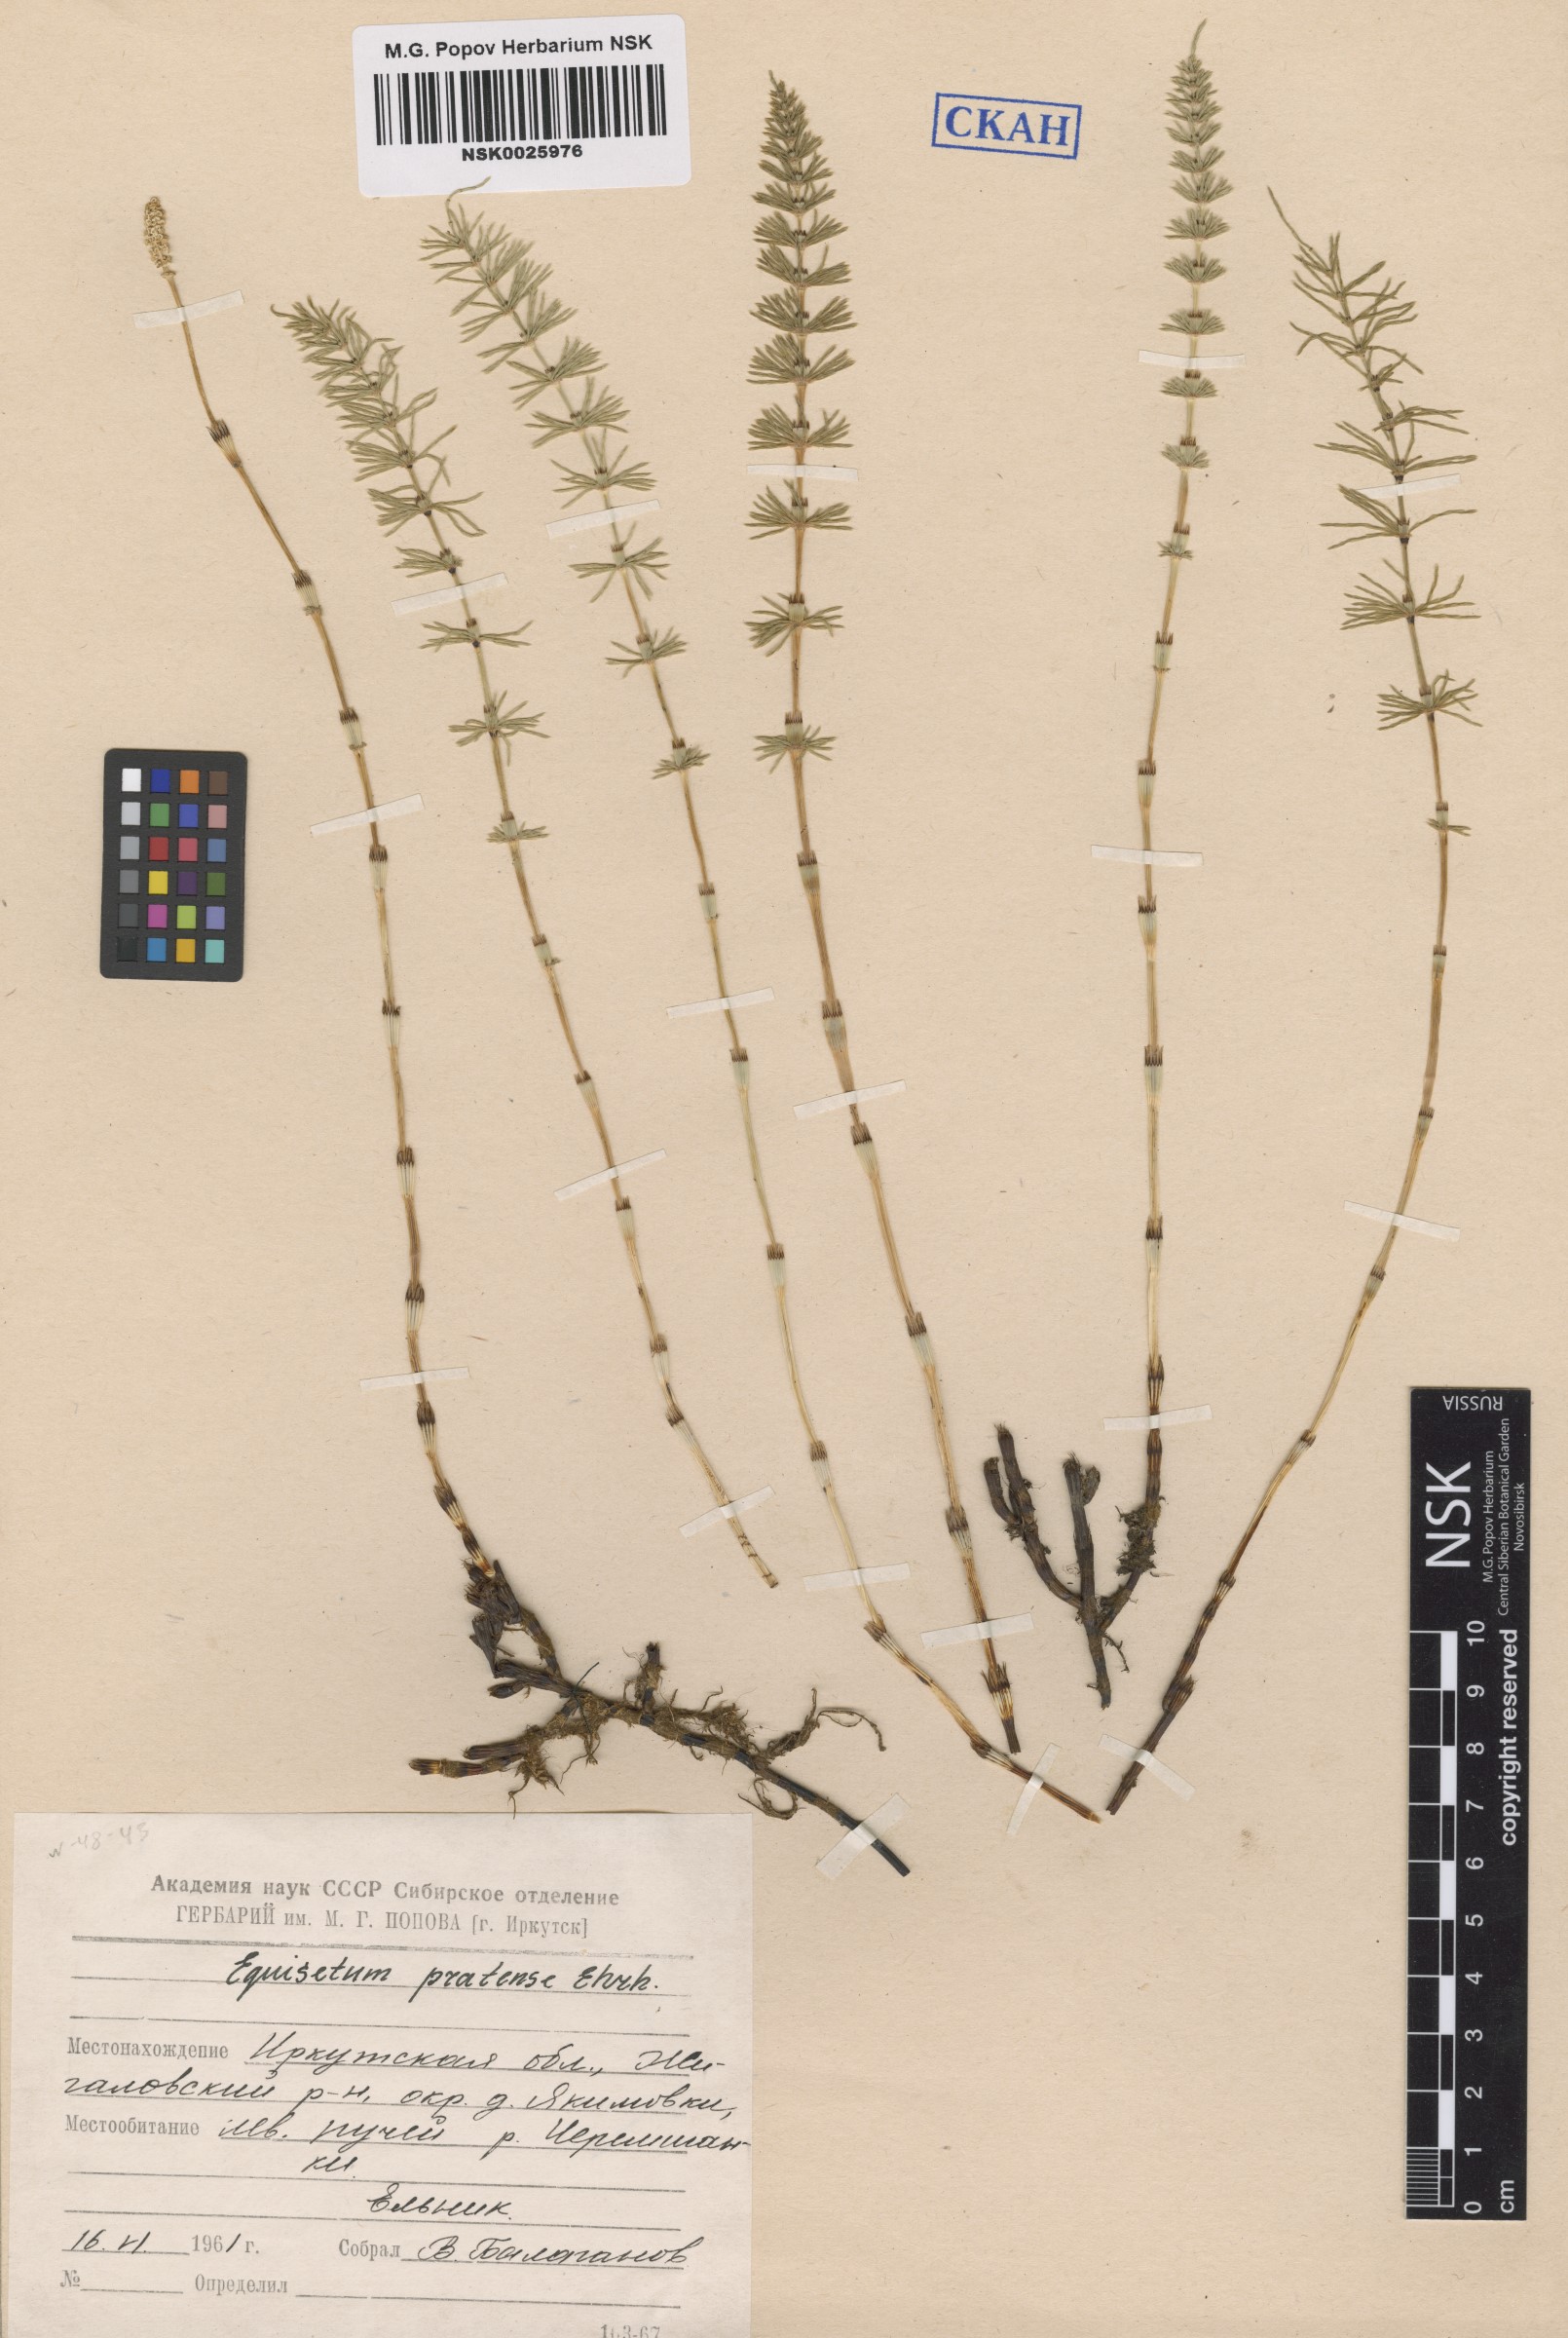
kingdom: Plantae
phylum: Tracheophyta
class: Polypodiopsida
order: Equisetales
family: Equisetaceae
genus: Equisetum
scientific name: Equisetum pratense
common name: Meadow horsetail
